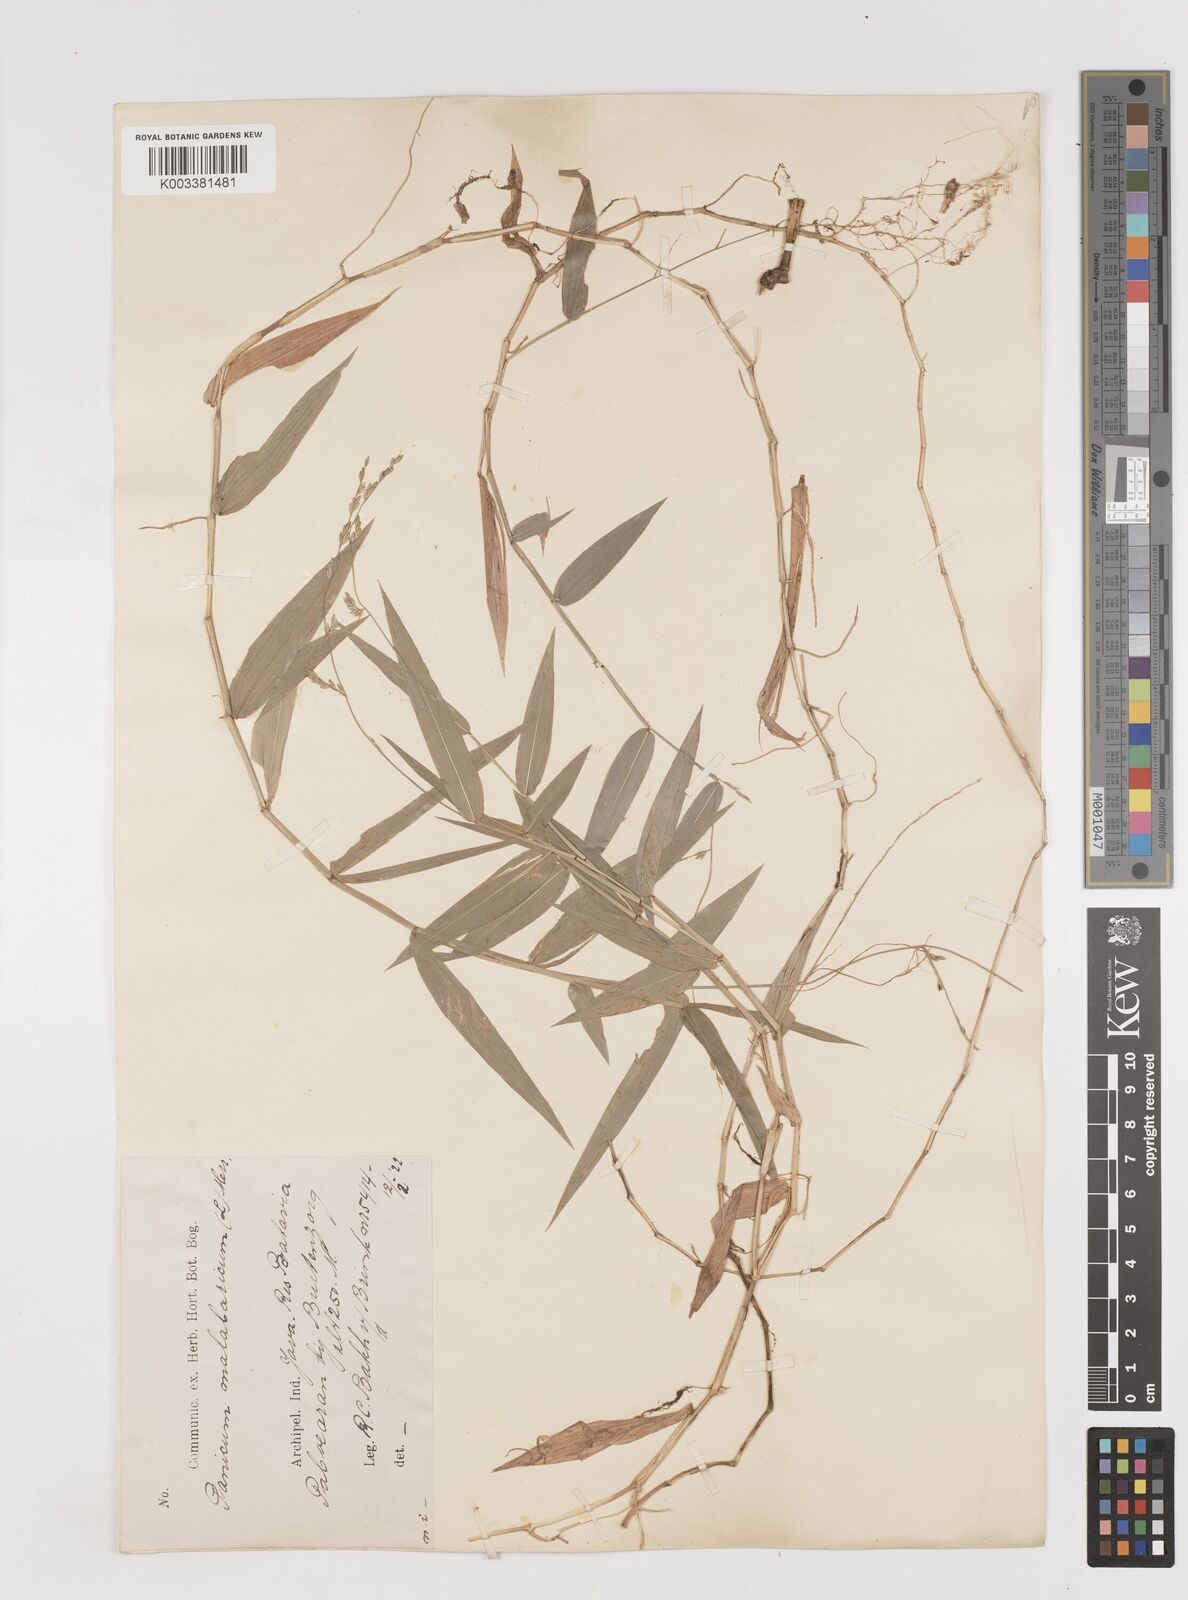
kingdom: Plantae
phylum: Tracheophyta
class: Liliopsida
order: Poales
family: Poaceae
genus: Ottochloa
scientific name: Ottochloa nodosa
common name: Slender-panic grass
